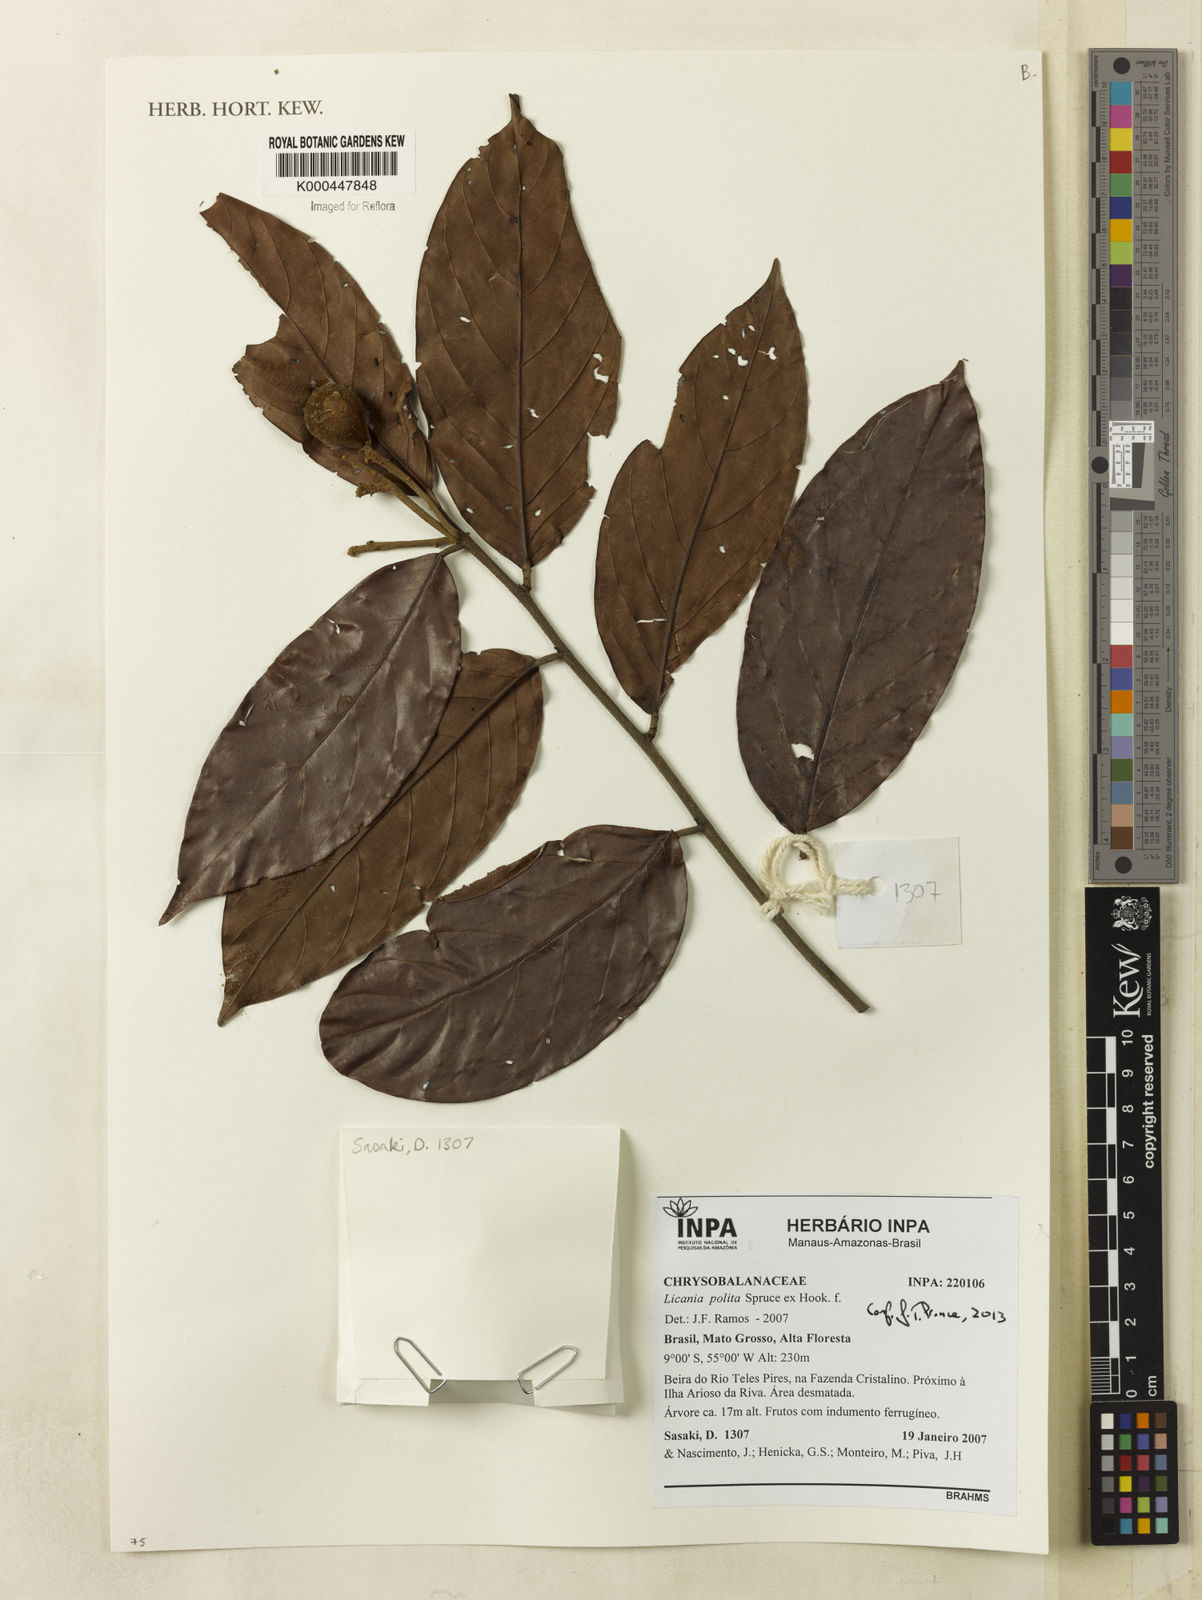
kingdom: Plantae
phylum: Tracheophyta
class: Magnoliopsida
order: Malpighiales
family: Chrysobalanaceae
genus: Licania
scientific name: Licania polita
